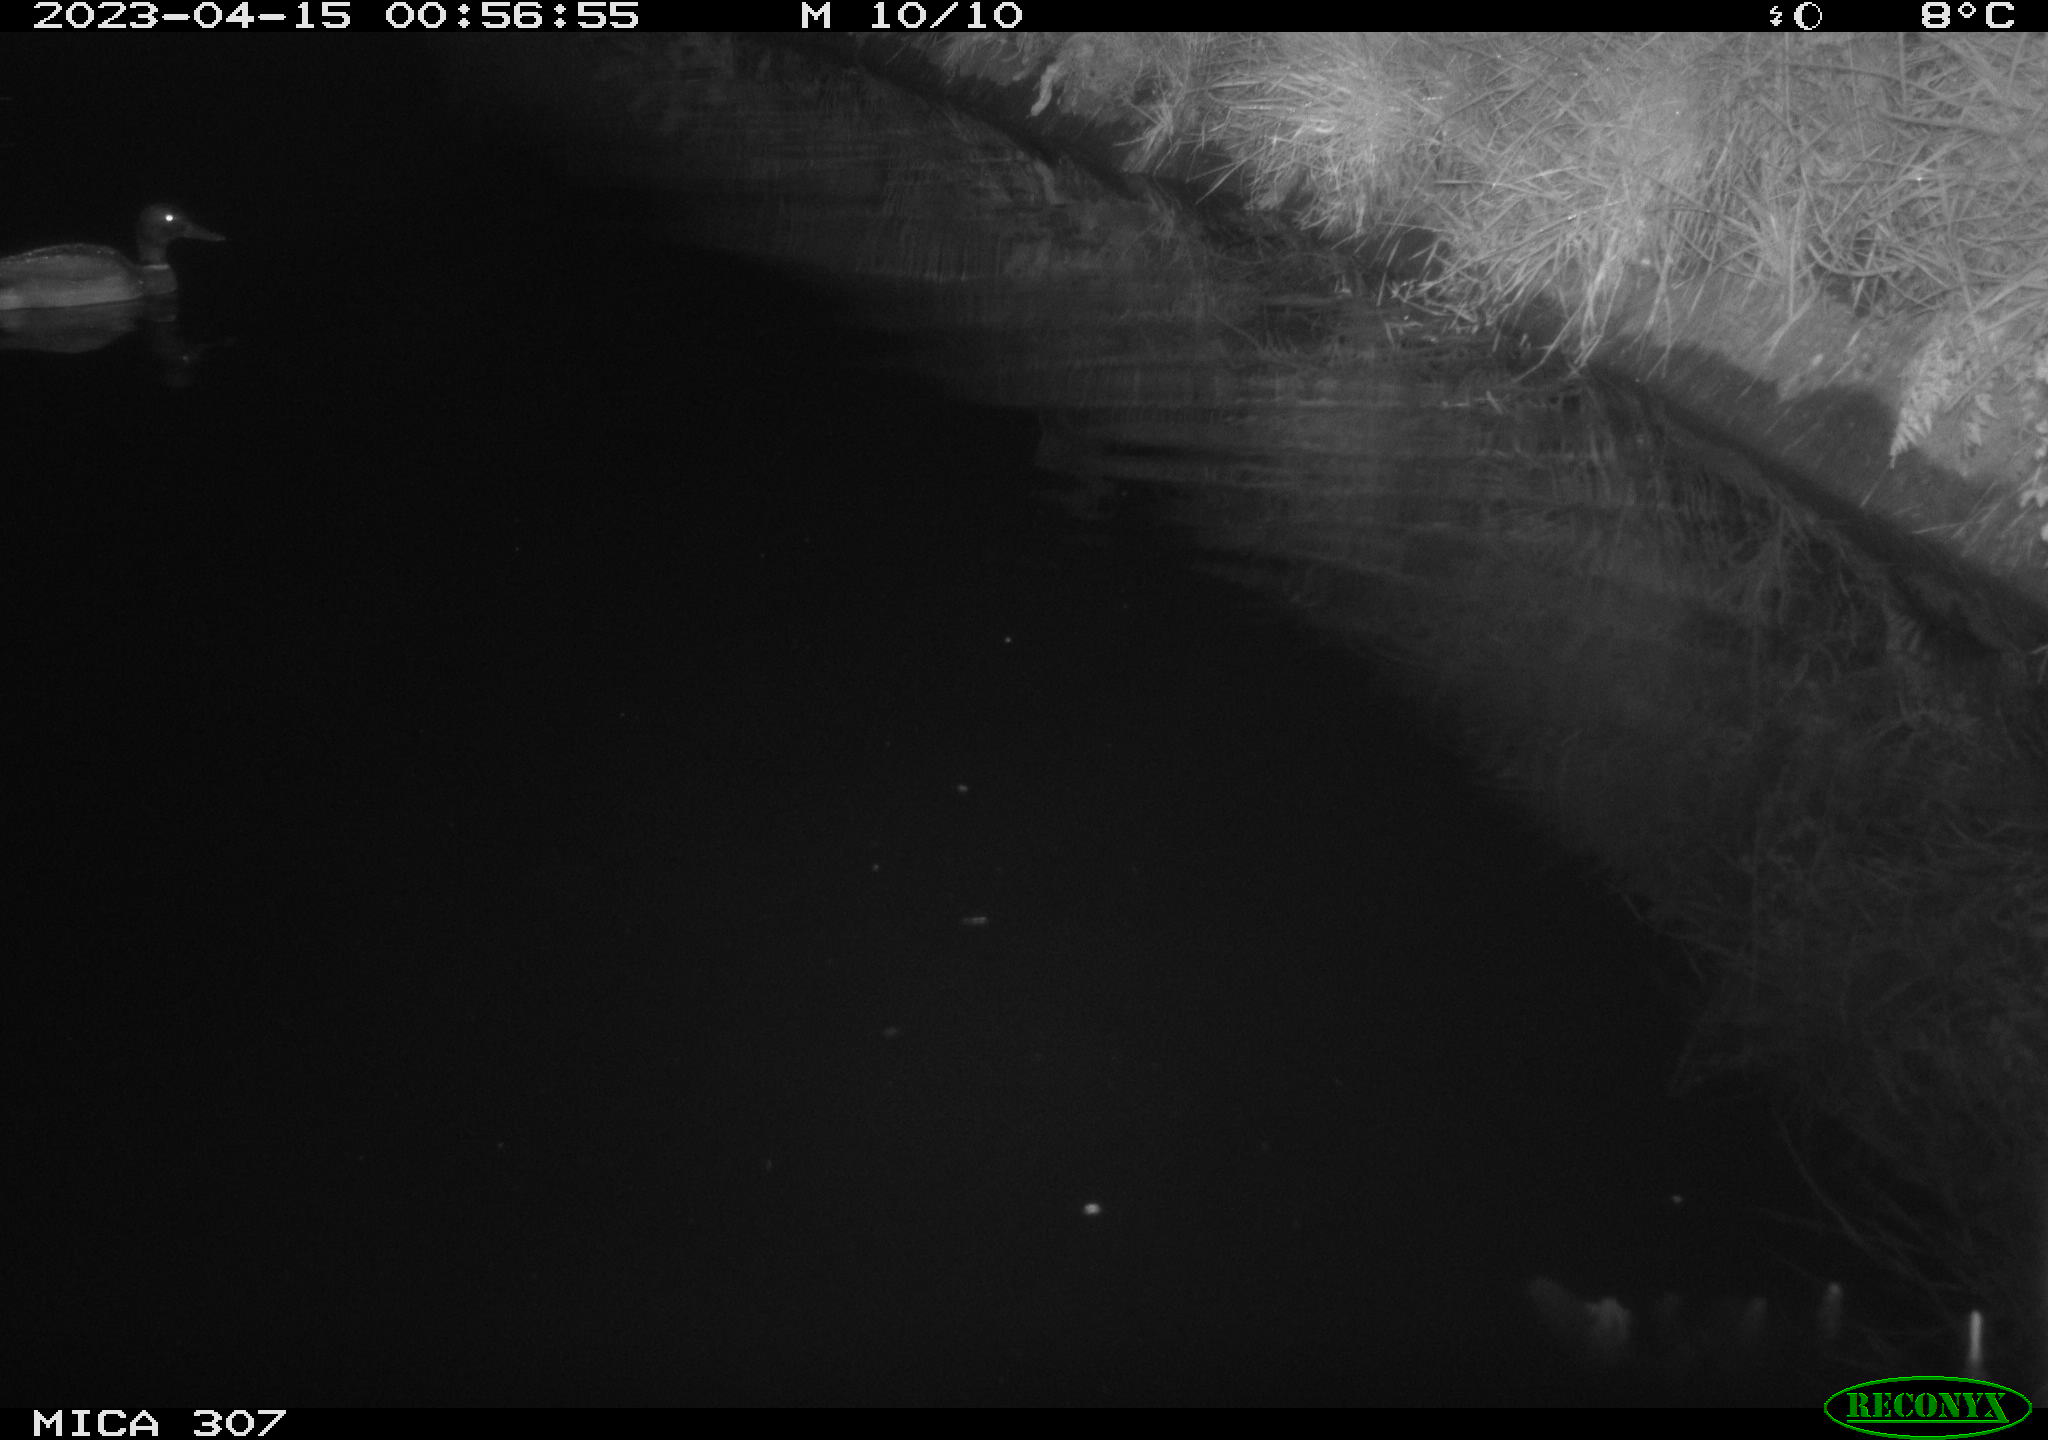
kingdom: Animalia
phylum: Chordata
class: Aves
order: Anseriformes
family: Anatidae
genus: Anas
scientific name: Anas
